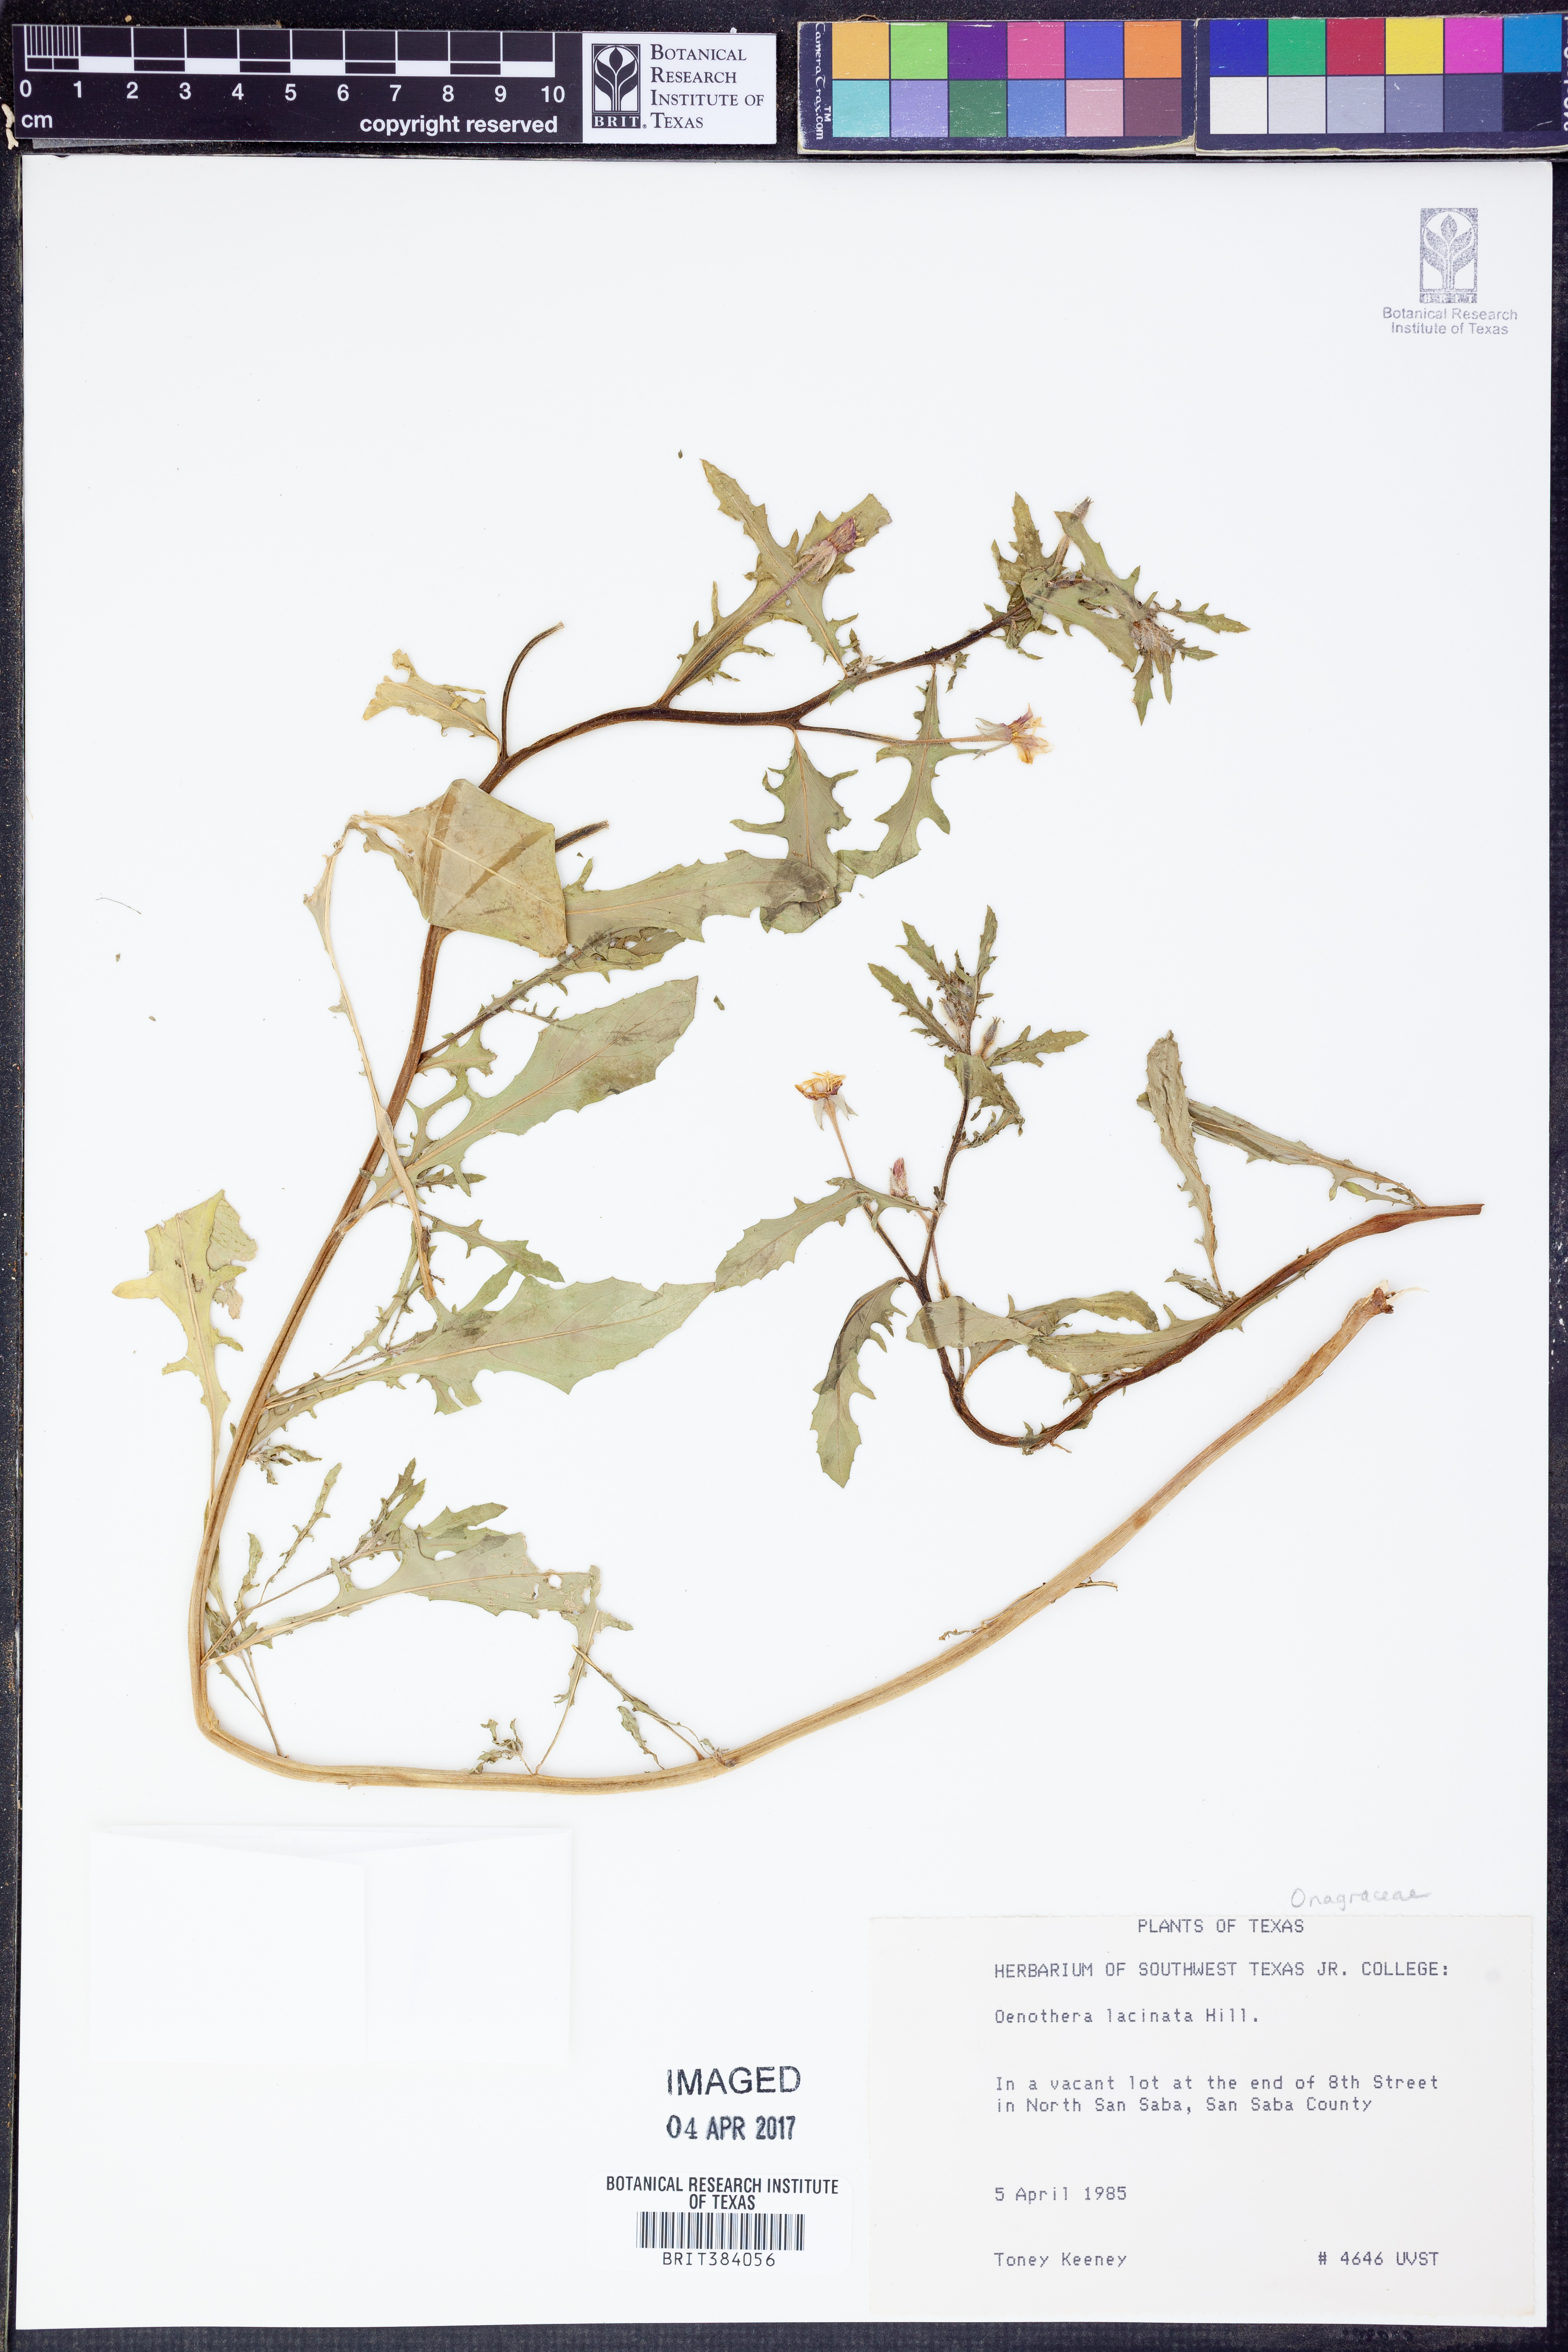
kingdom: Plantae
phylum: Tracheophyta
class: Magnoliopsida
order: Myrtales
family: Onagraceae
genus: Oenothera
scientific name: Oenothera laciniata
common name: Cut-leaved evening-primrose
